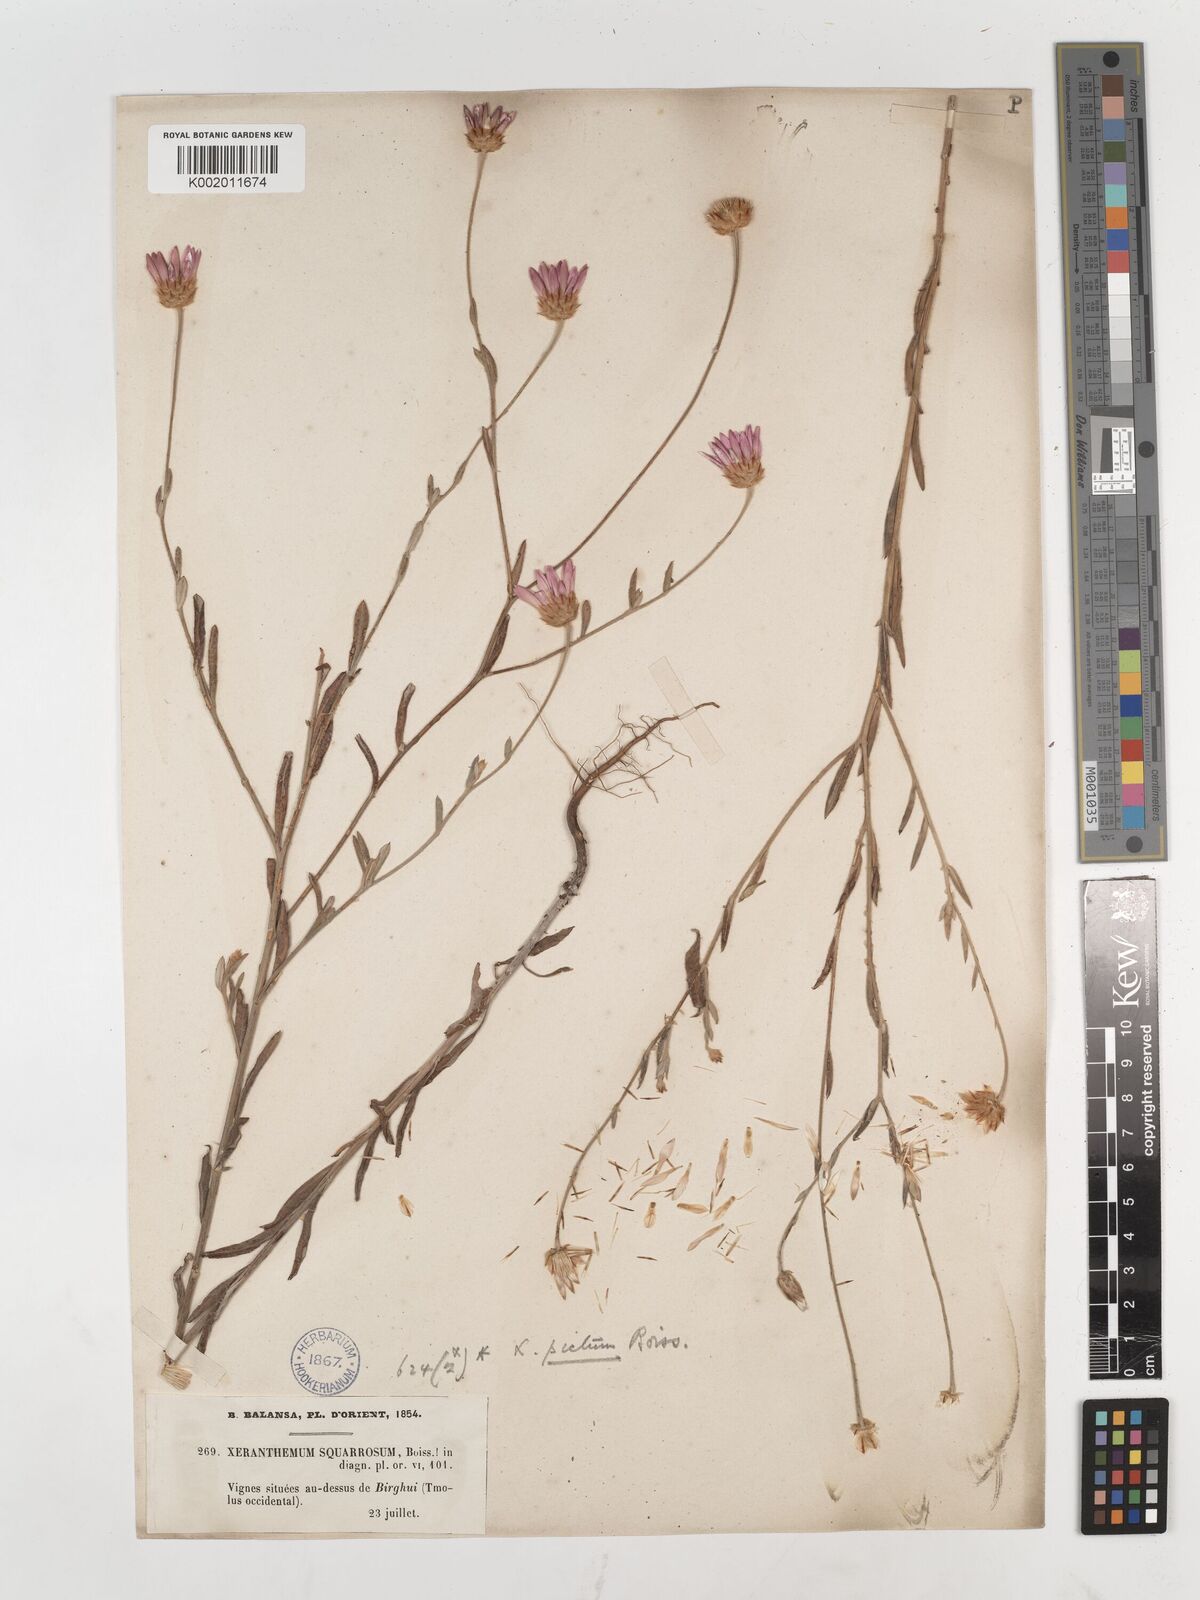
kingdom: Plantae
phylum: Tracheophyta
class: Magnoliopsida
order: Asterales
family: Asteraceae
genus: Xeranthemum
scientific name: Xeranthemum squarrosum
